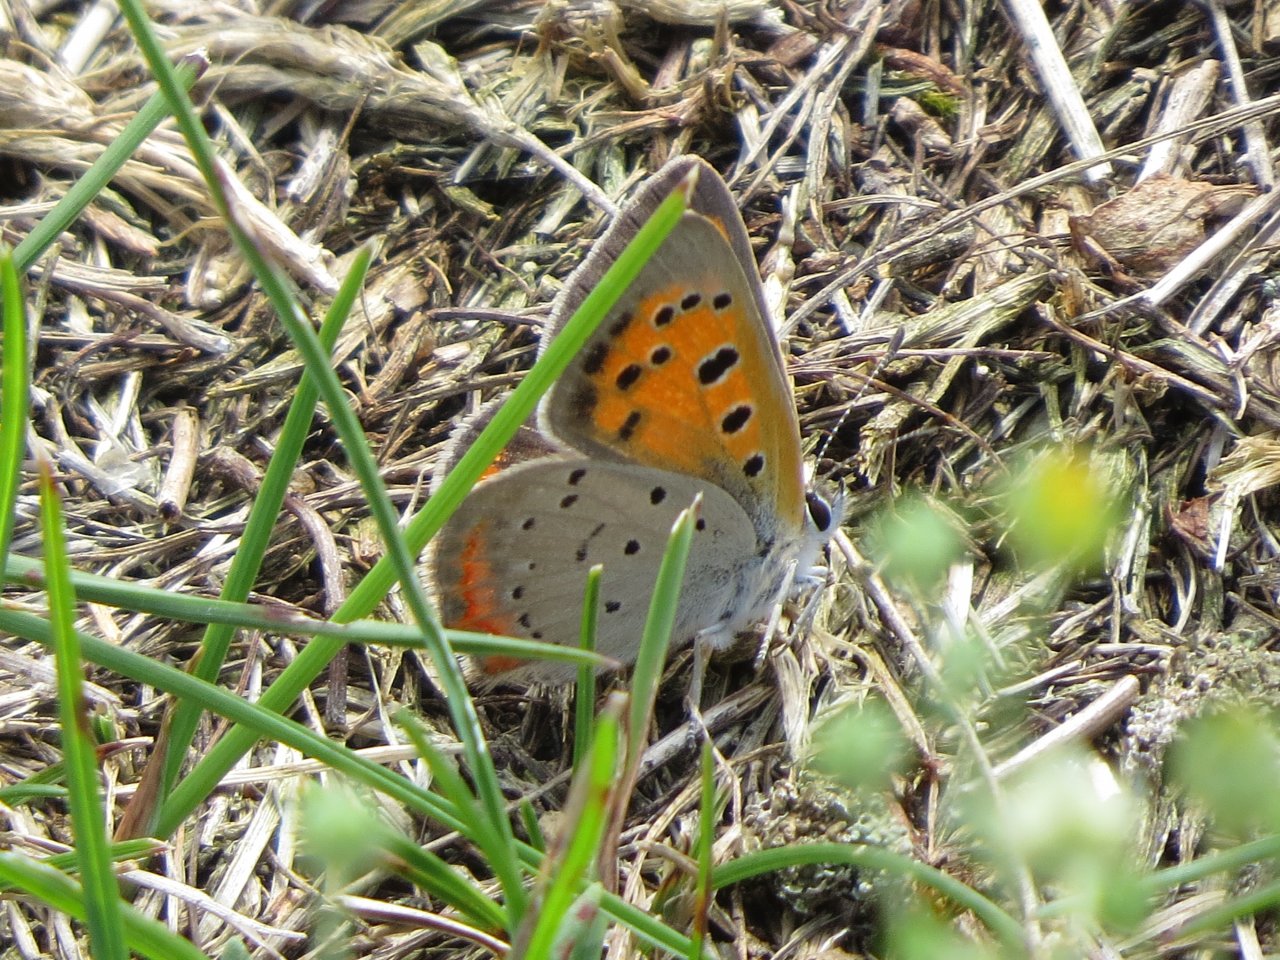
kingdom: Animalia
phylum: Arthropoda
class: Insecta
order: Lepidoptera
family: Lycaenidae
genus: Lycaena
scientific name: Lycaena phlaeas
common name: American Copper
